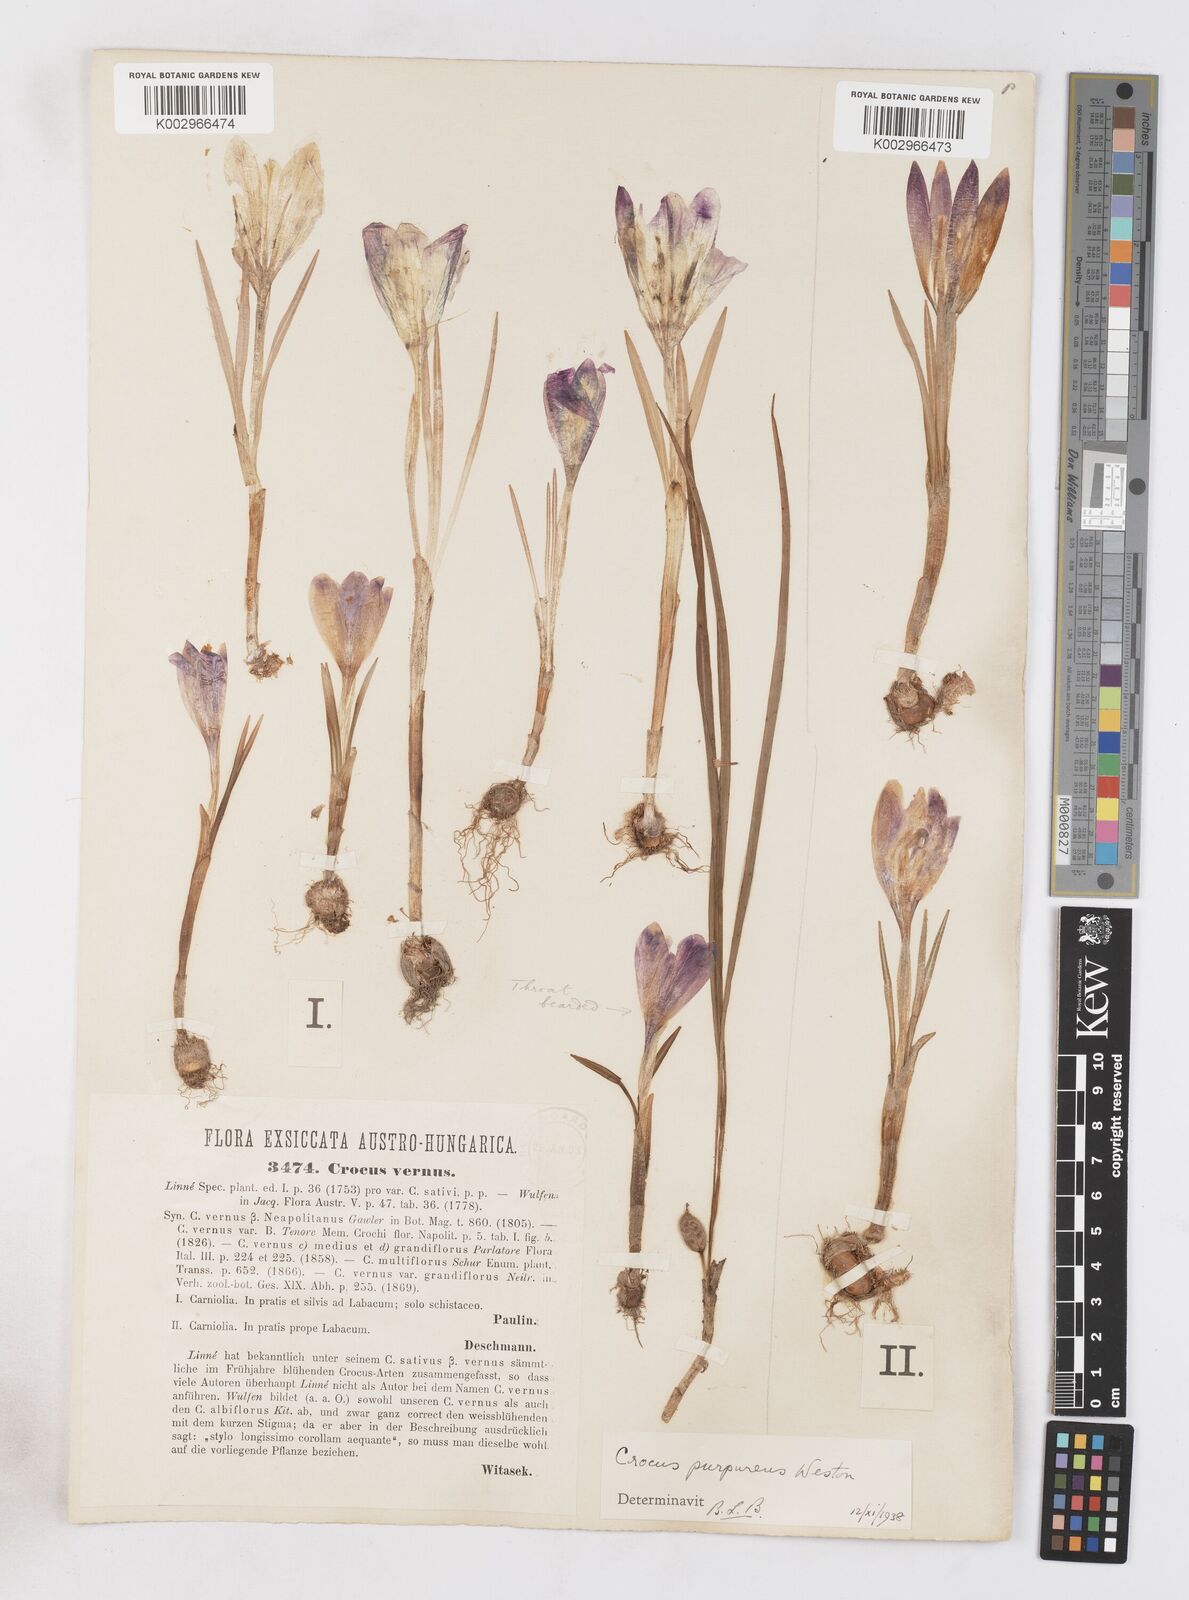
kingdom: Plantae
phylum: Tracheophyta
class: Liliopsida
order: Asparagales
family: Iridaceae
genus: Crocus
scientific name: Crocus vernus
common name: Spring crocus
